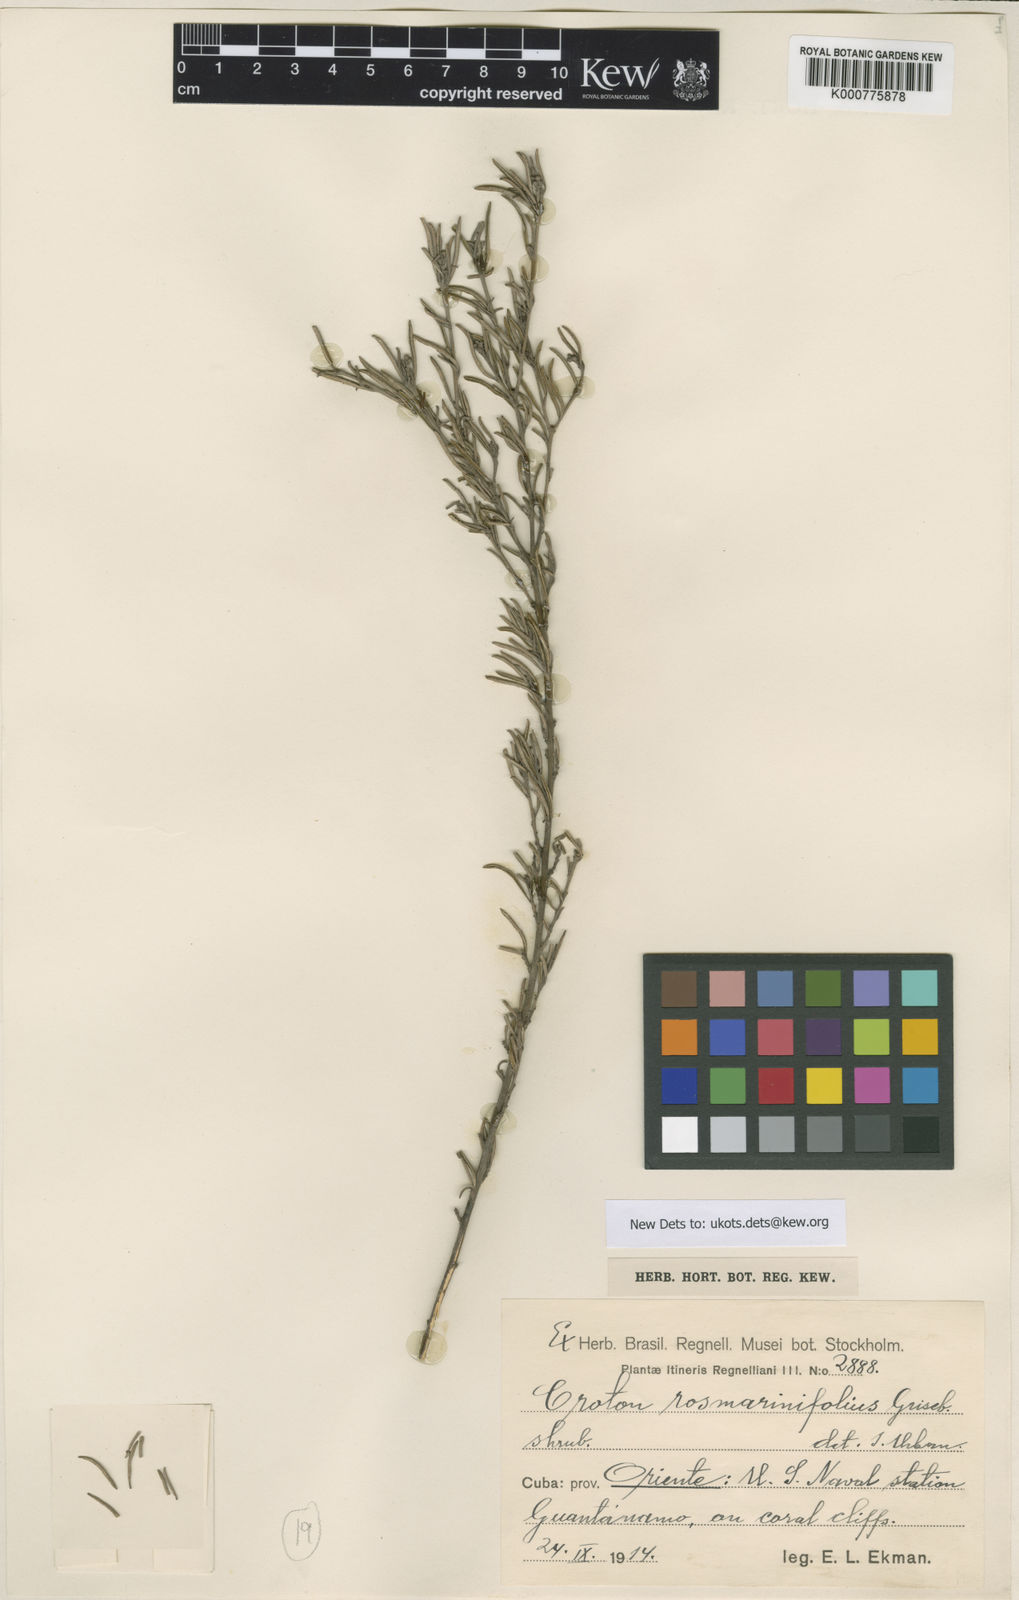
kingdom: Plantae
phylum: Tracheophyta
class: Magnoliopsida
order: Malpighiales
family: Euphorbiaceae
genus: Croton
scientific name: Croton
